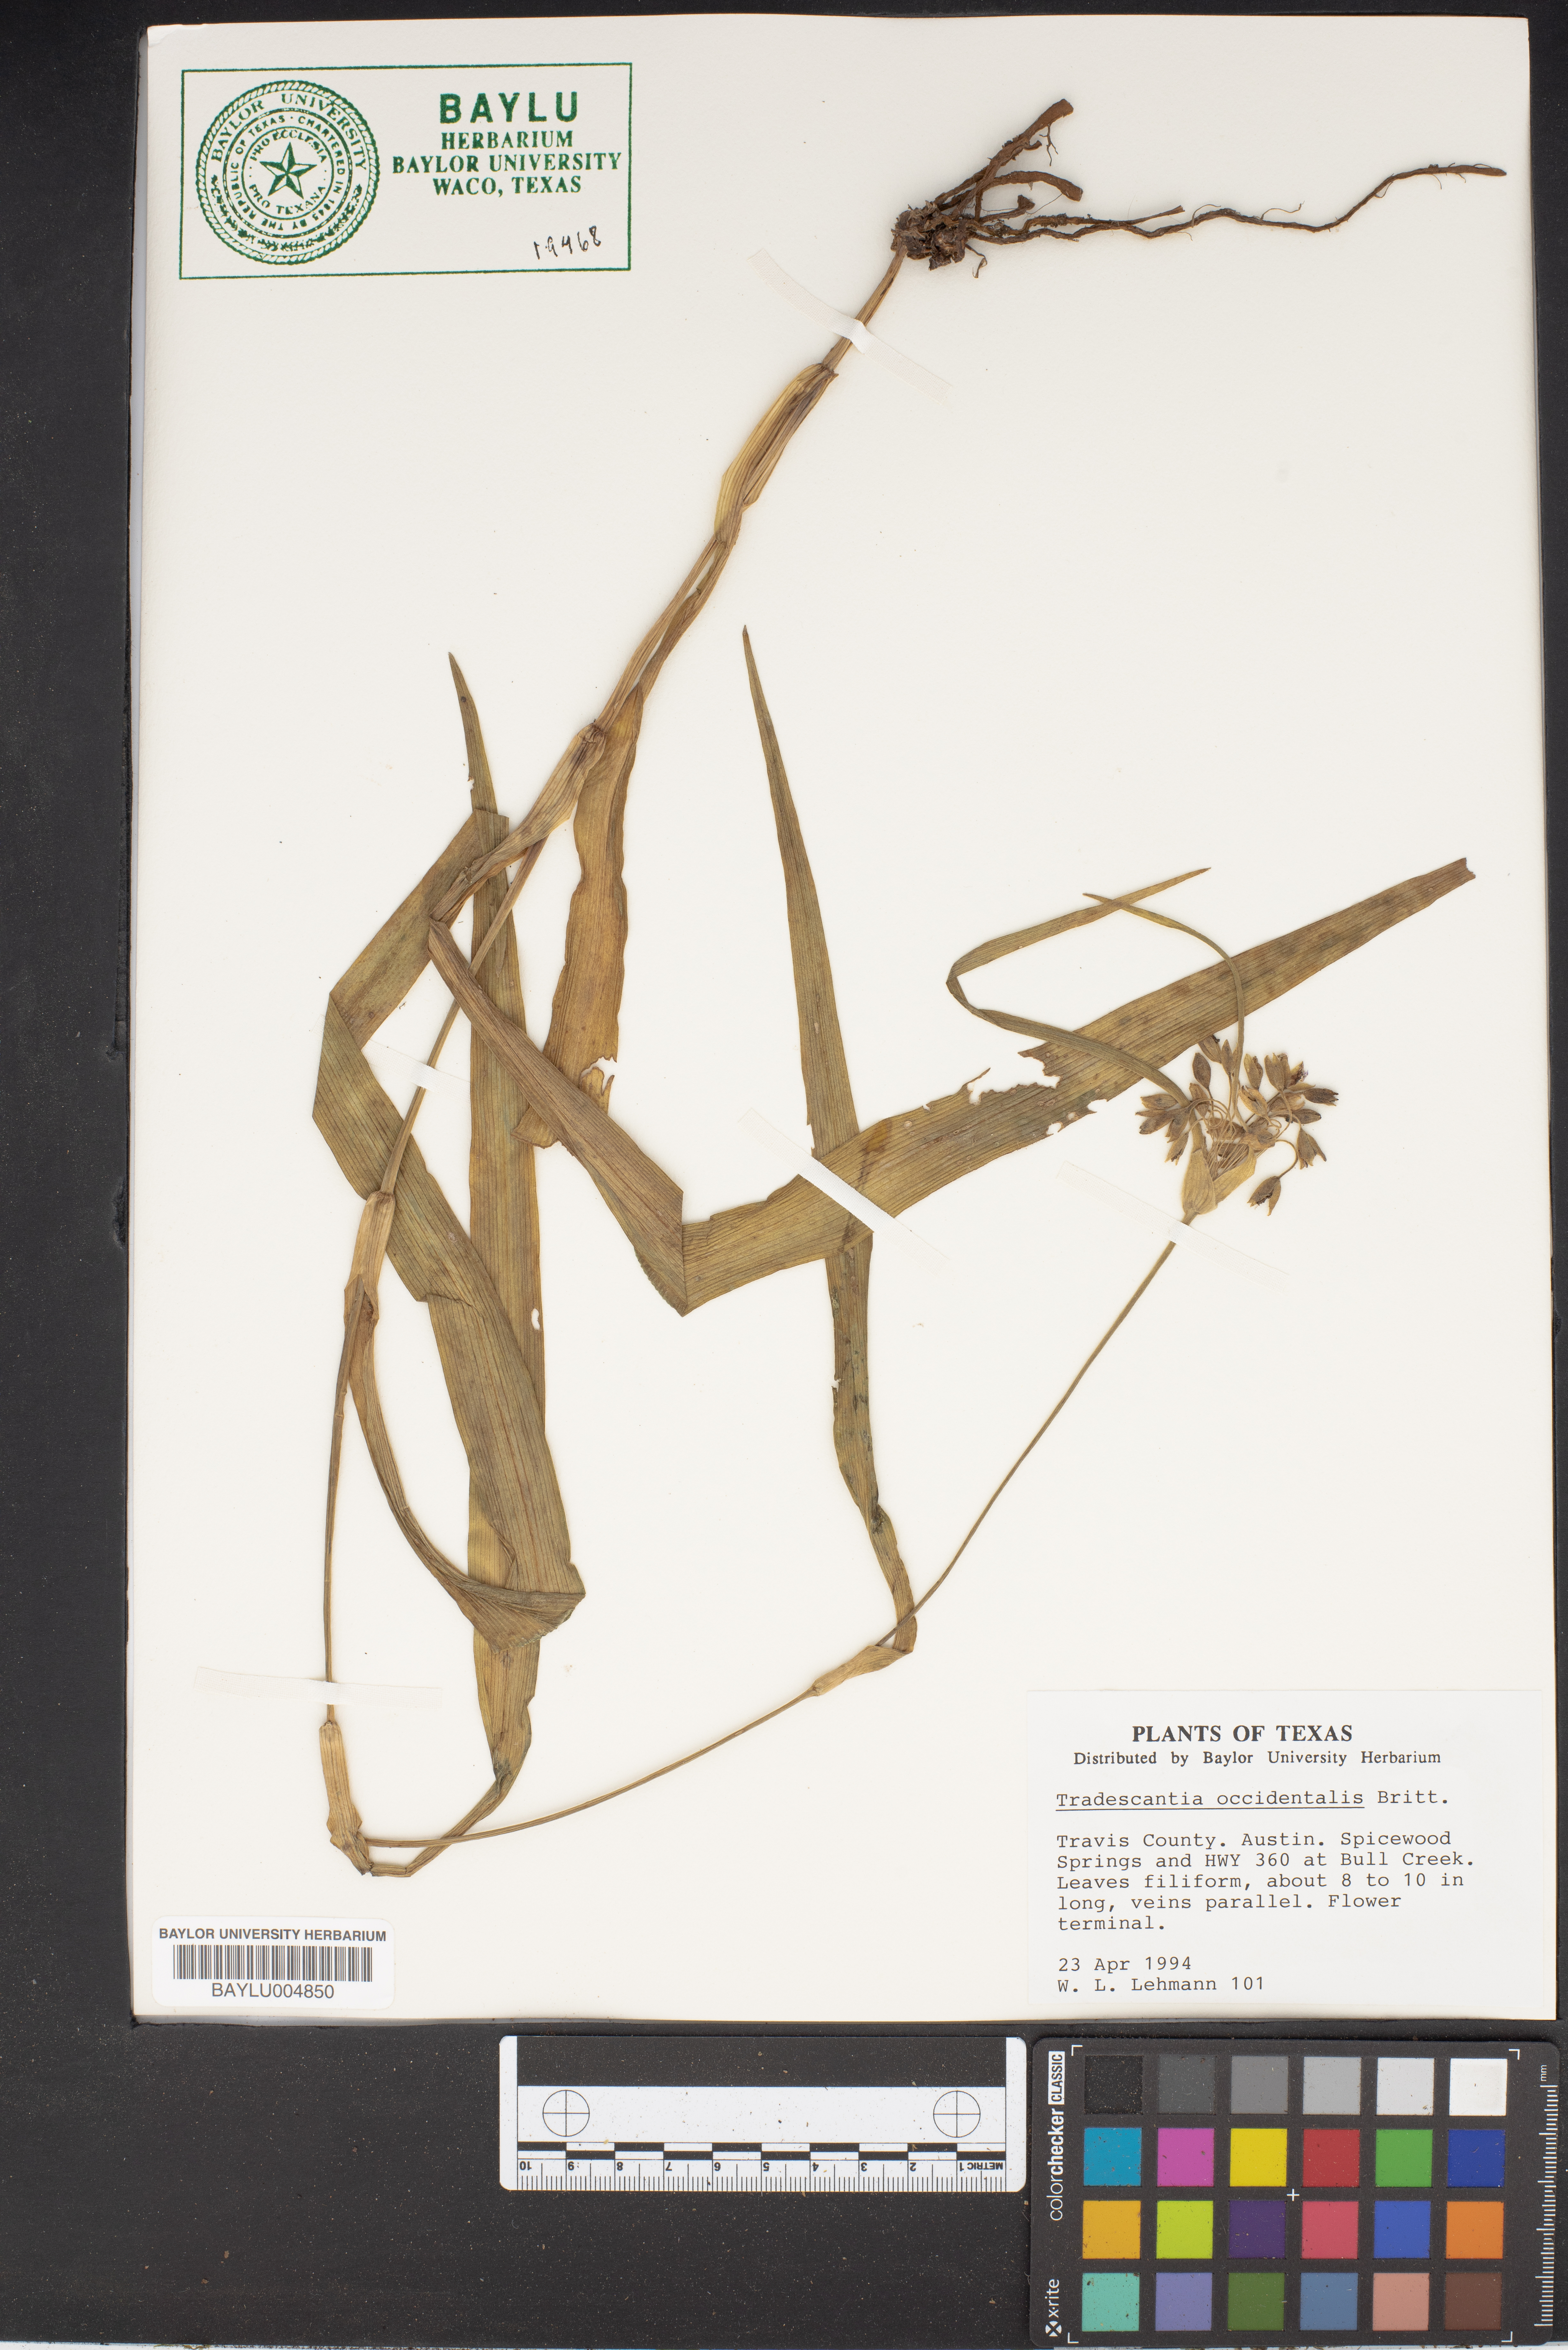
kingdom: Plantae
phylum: Tracheophyta
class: Liliopsida
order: Commelinales
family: Commelinaceae
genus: Tradescantia
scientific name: Tradescantia occidentalis
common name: Prairie spiderwort
